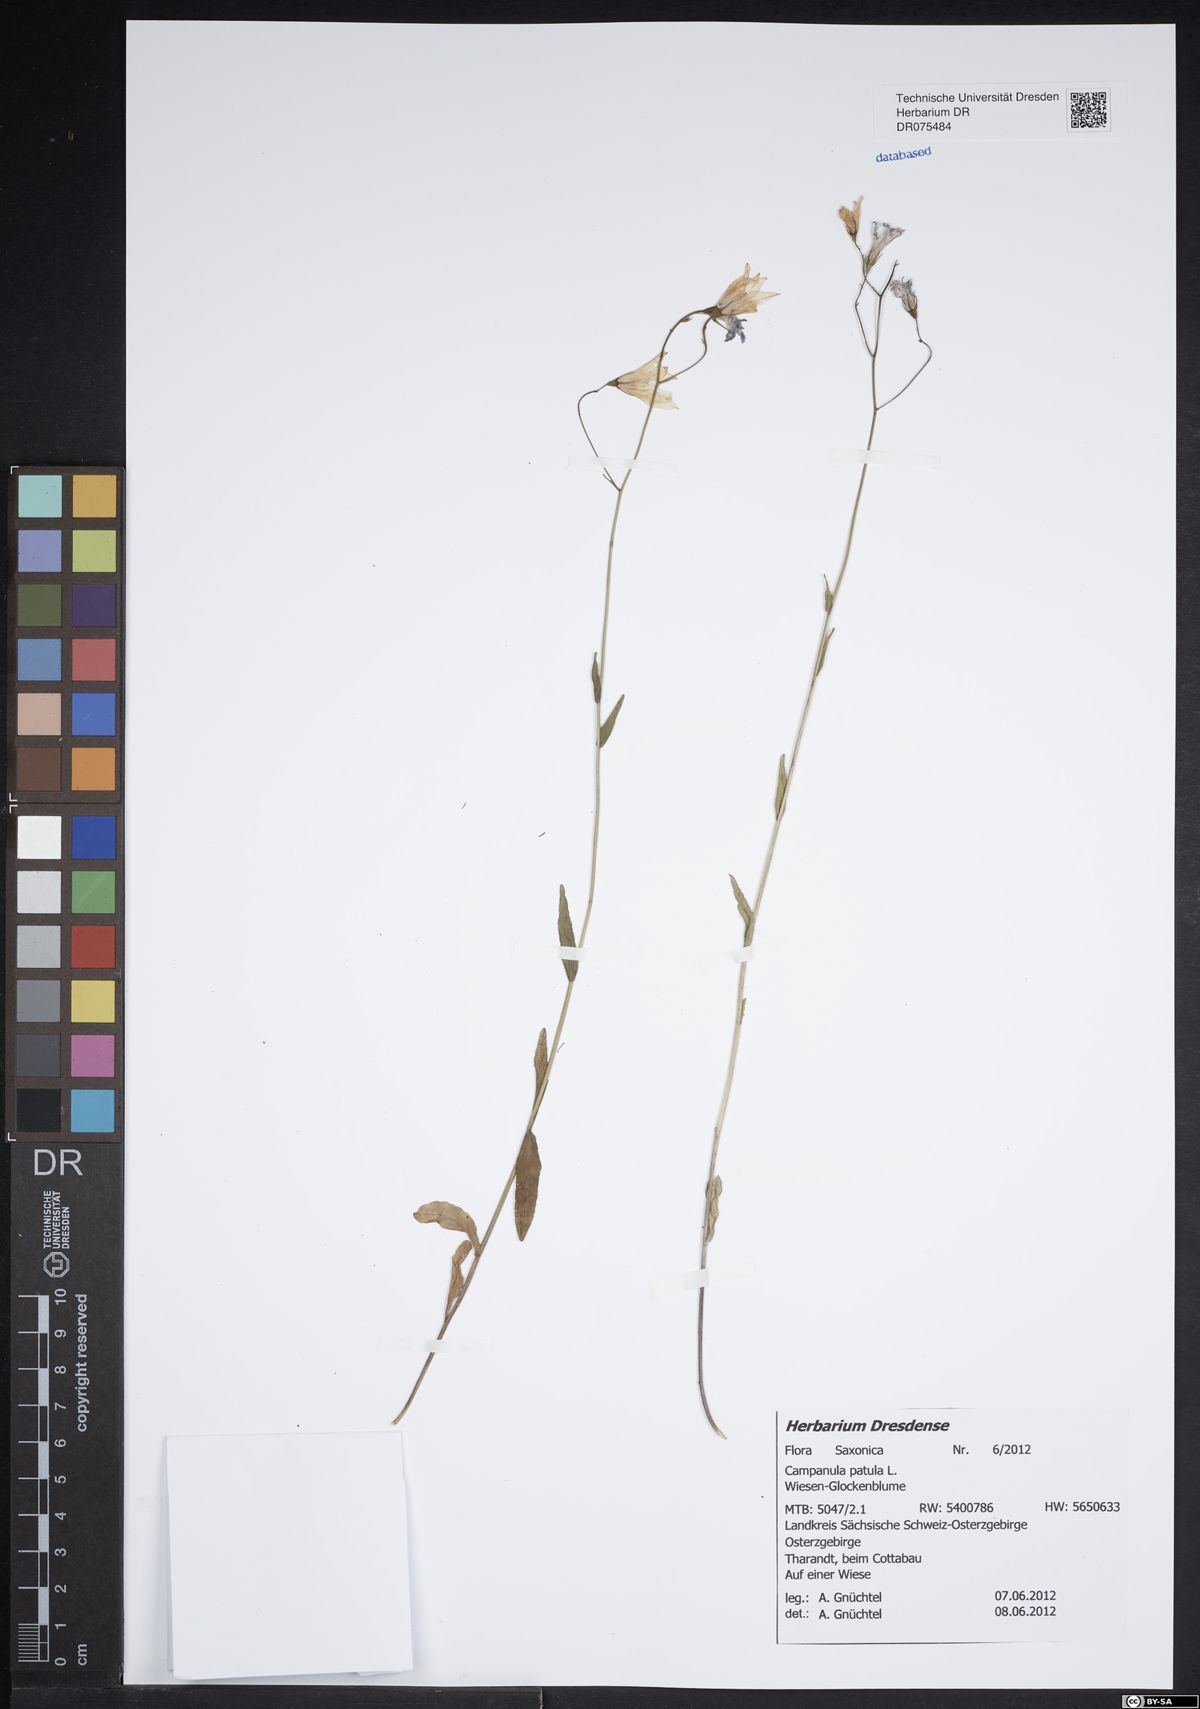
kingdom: Plantae
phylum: Tracheophyta
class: Magnoliopsida
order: Asterales
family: Campanulaceae
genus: Campanula
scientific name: Campanula patula
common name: Spreading bellflower
